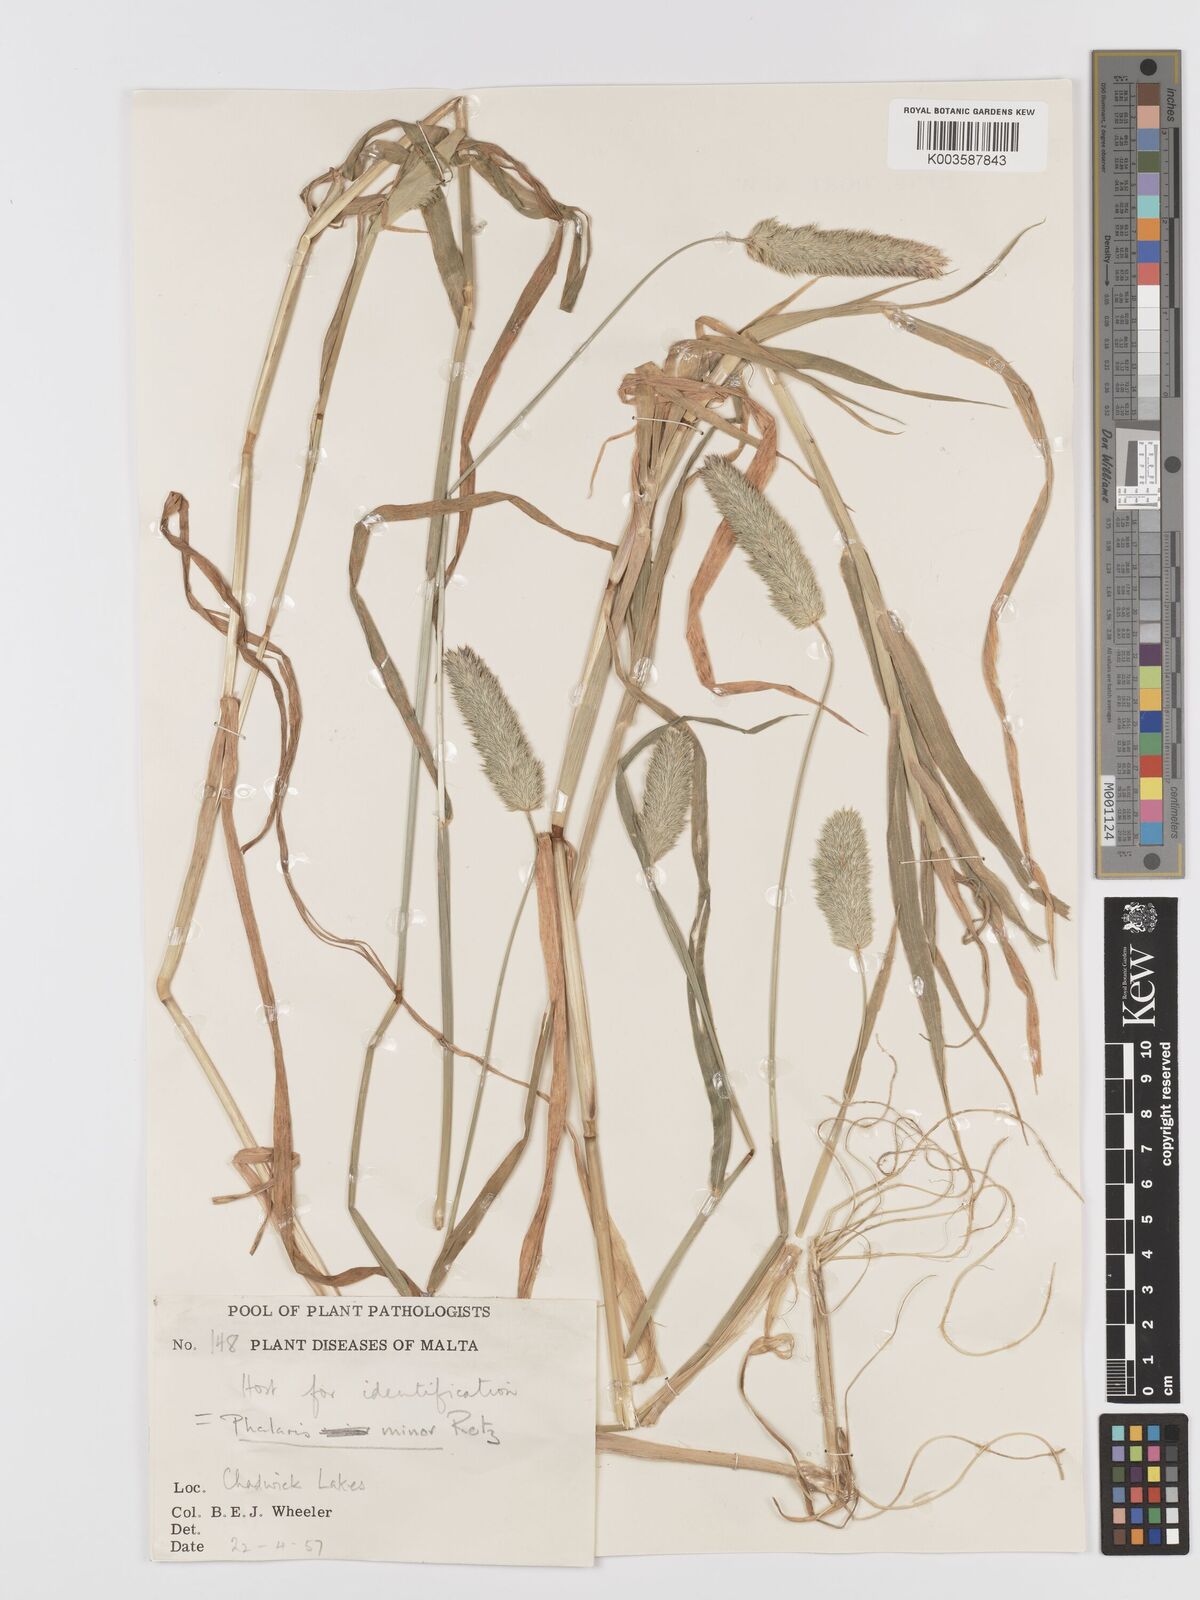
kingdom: Plantae
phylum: Tracheophyta
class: Liliopsida
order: Poales
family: Poaceae
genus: Phalaris
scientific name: Phalaris minor
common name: Littleseed canarygrass
